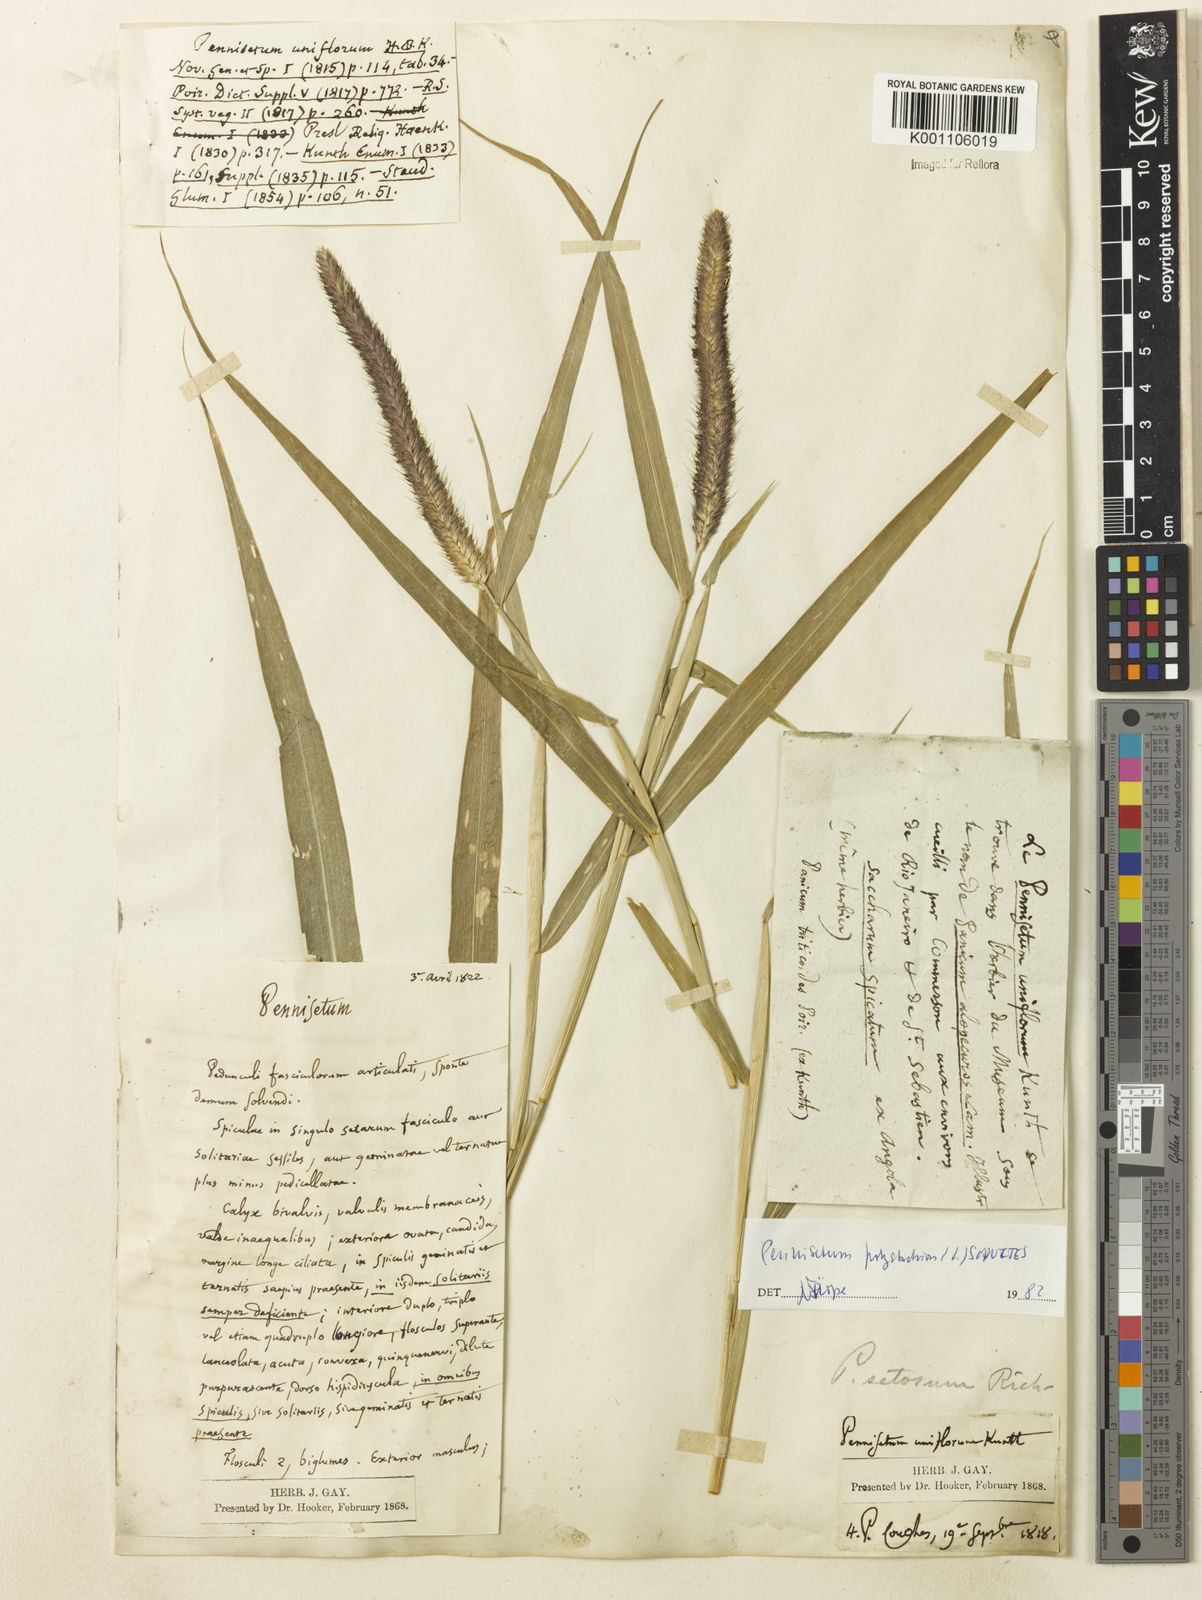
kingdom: Plantae
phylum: Tracheophyta
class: Liliopsida
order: Poales
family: Poaceae
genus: Setaria
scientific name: Setaria parviflora
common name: Knotroot bristle-grass
